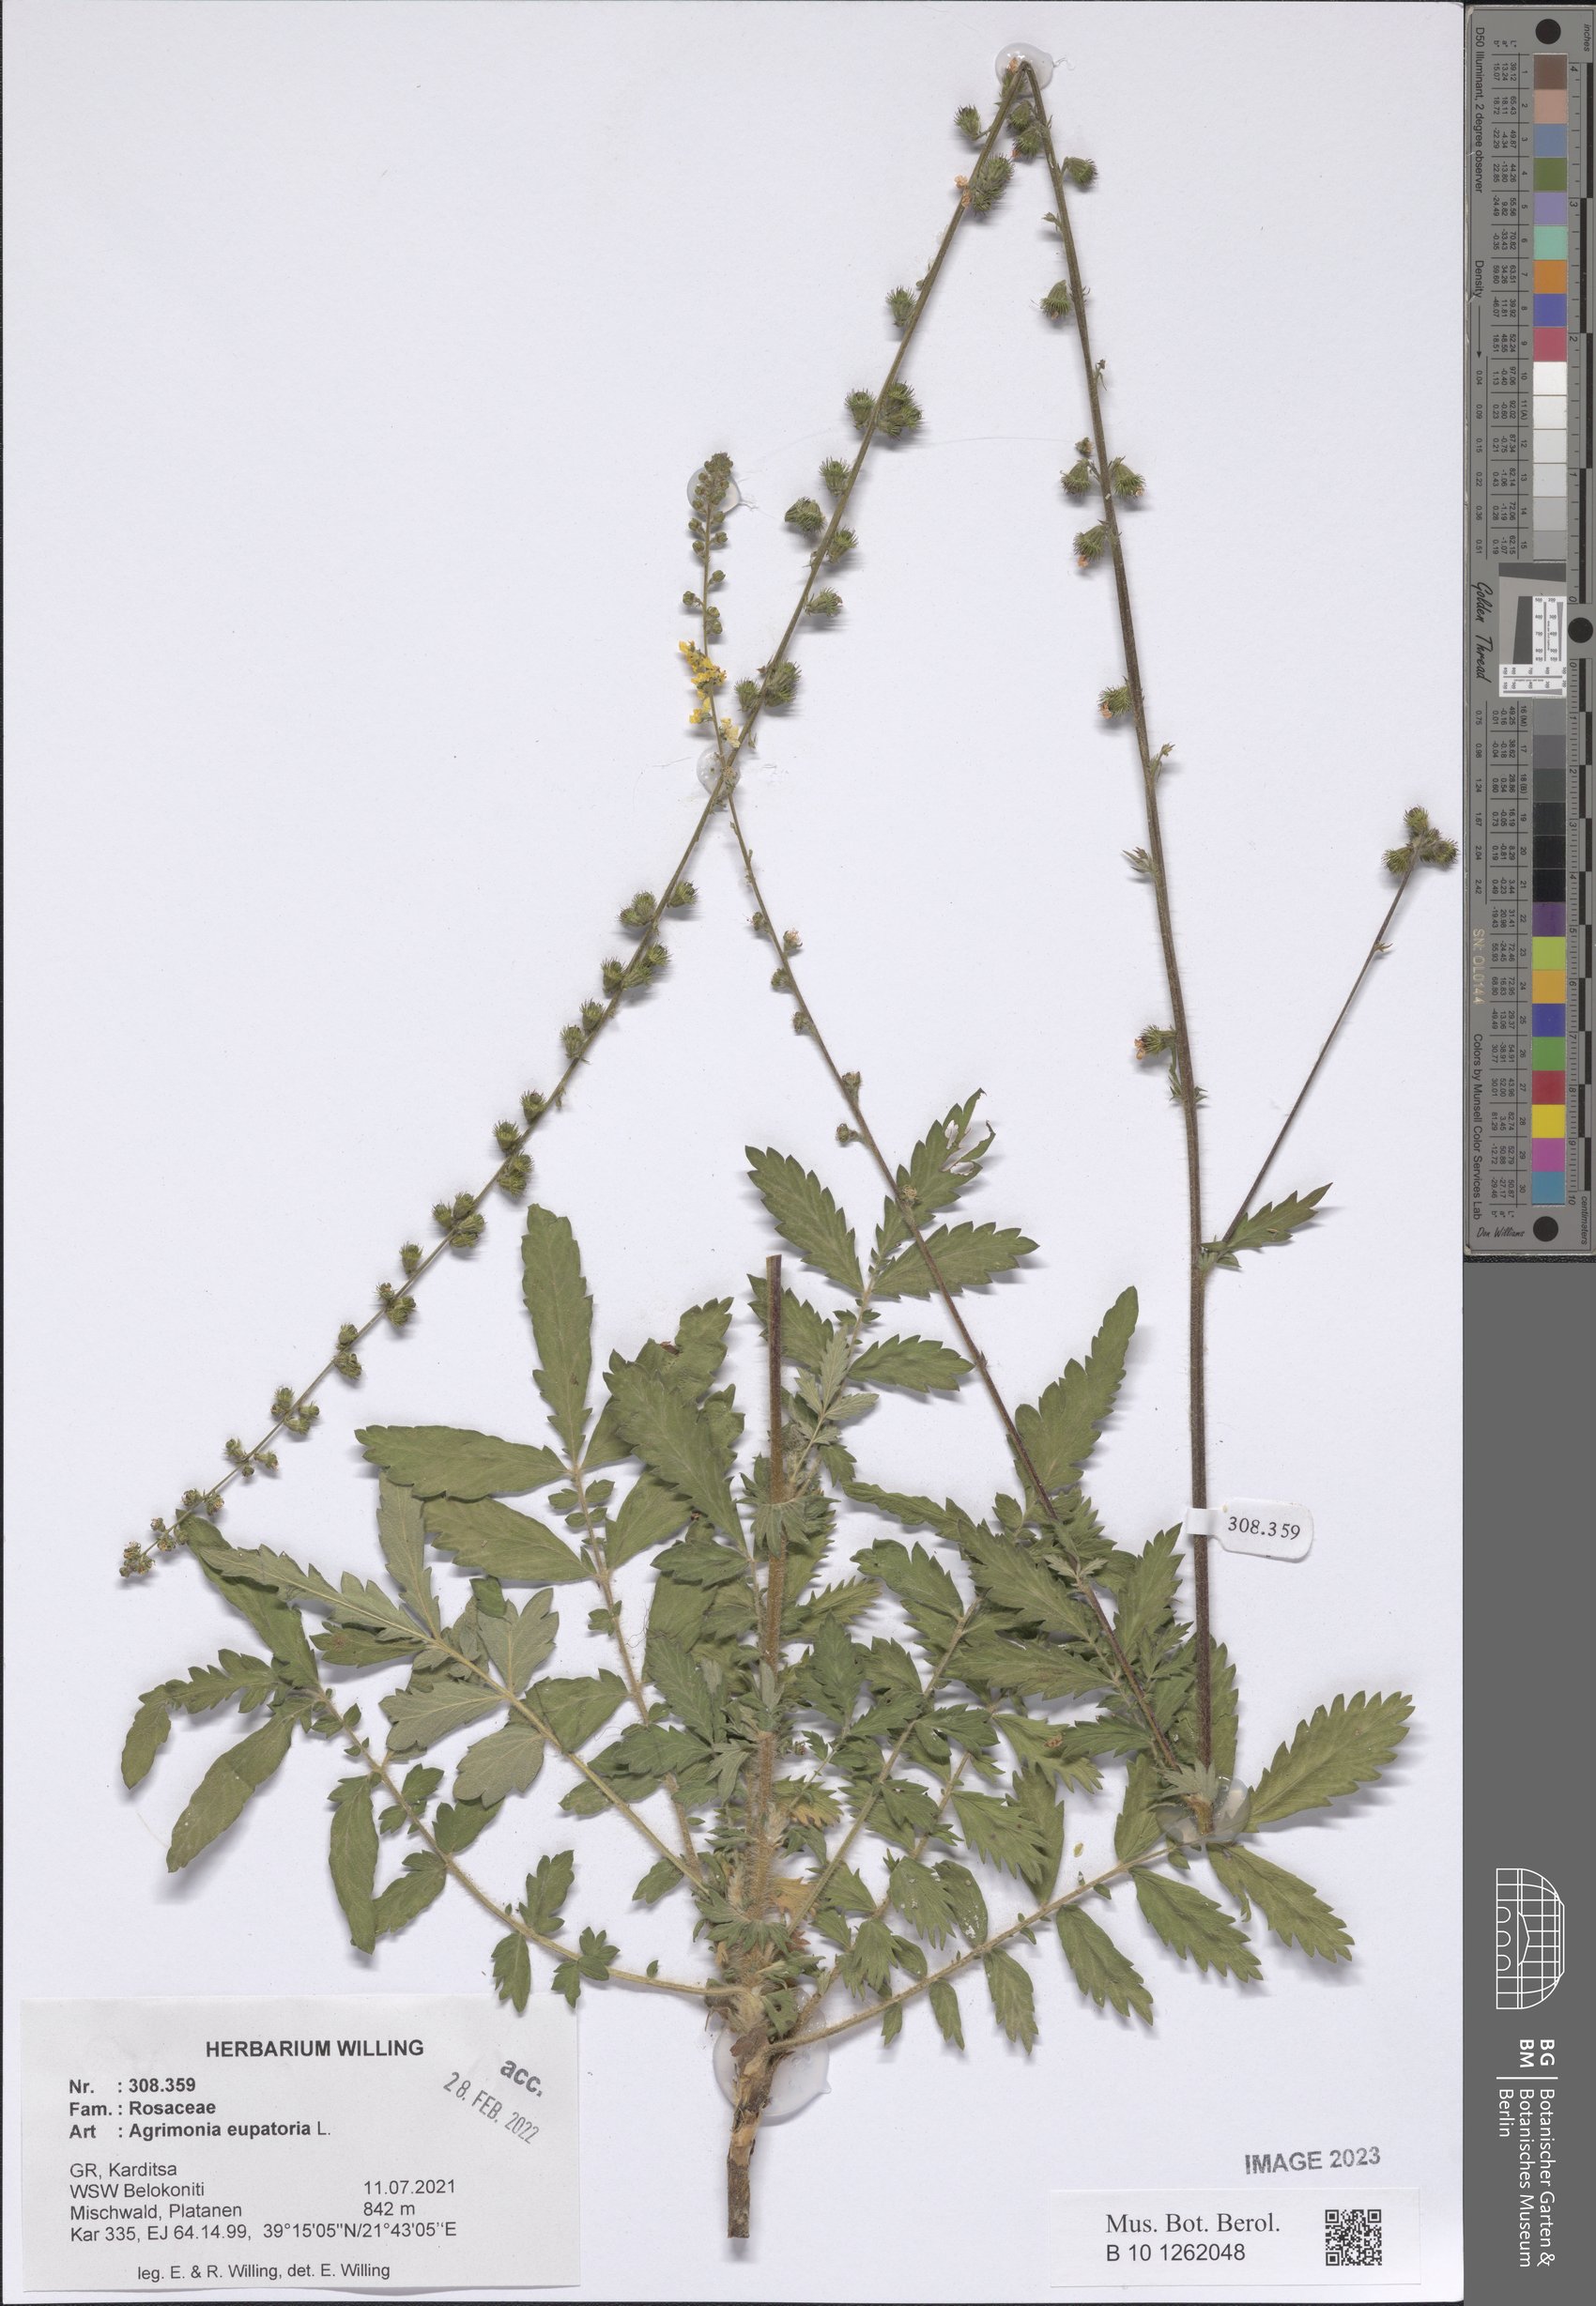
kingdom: Plantae
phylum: Tracheophyta
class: Magnoliopsida
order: Rosales
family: Rosaceae
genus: Agrimonia
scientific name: Agrimonia eupatoria
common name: Agrimony
